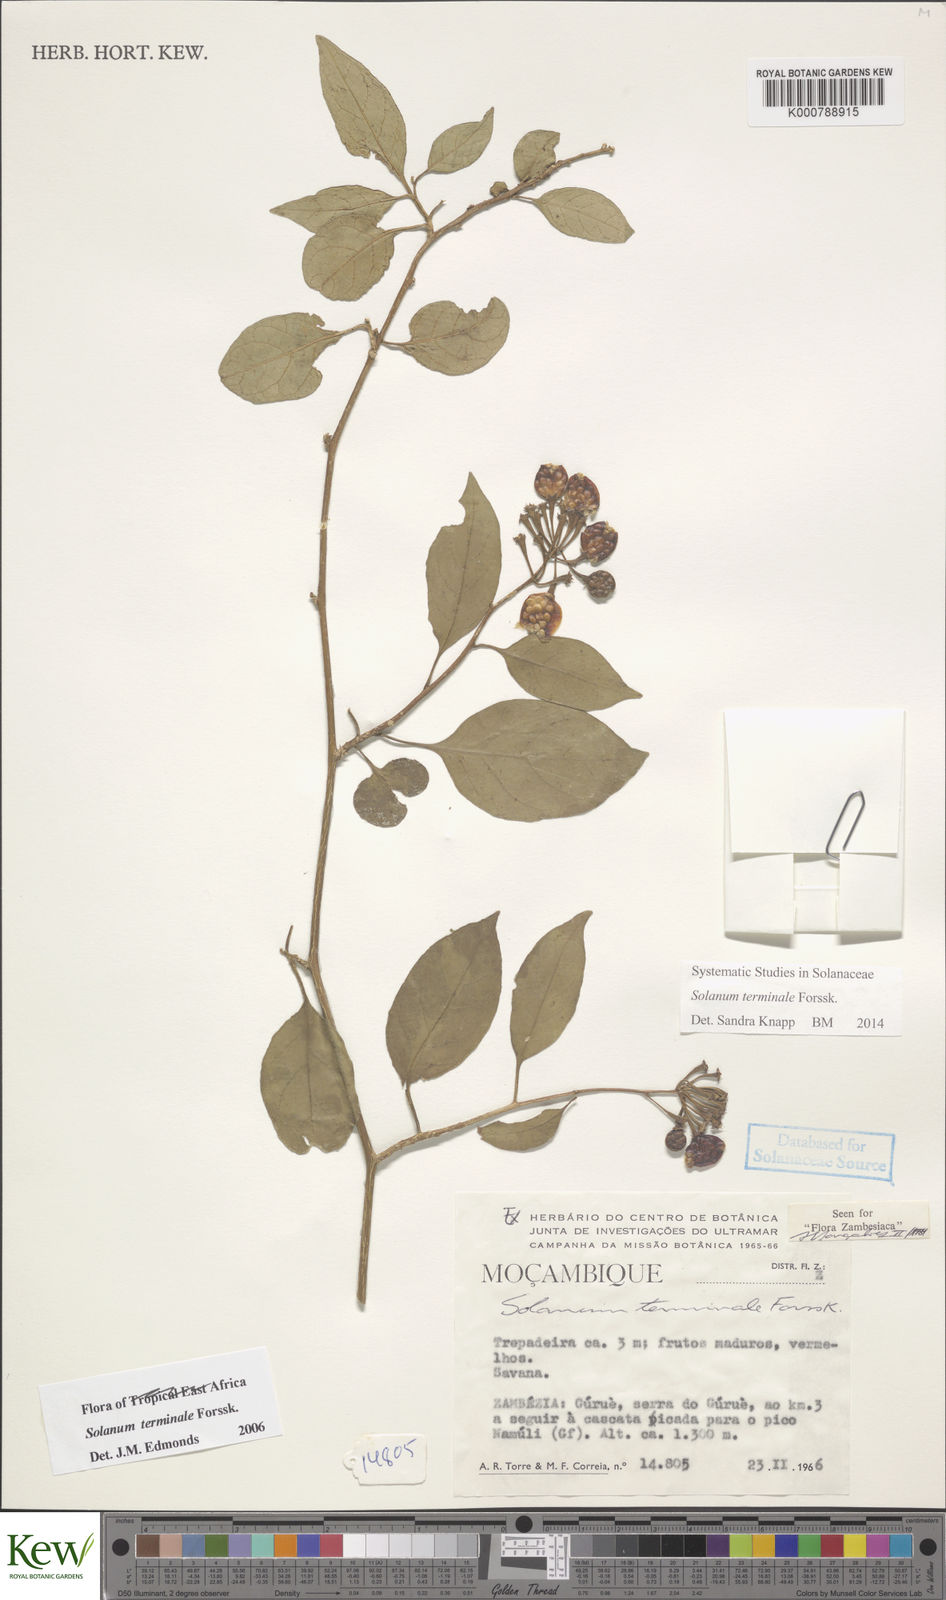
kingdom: Plantae
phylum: Tracheophyta
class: Magnoliopsida
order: Solanales
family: Solanaceae
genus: Solanum
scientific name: Solanum terminale
